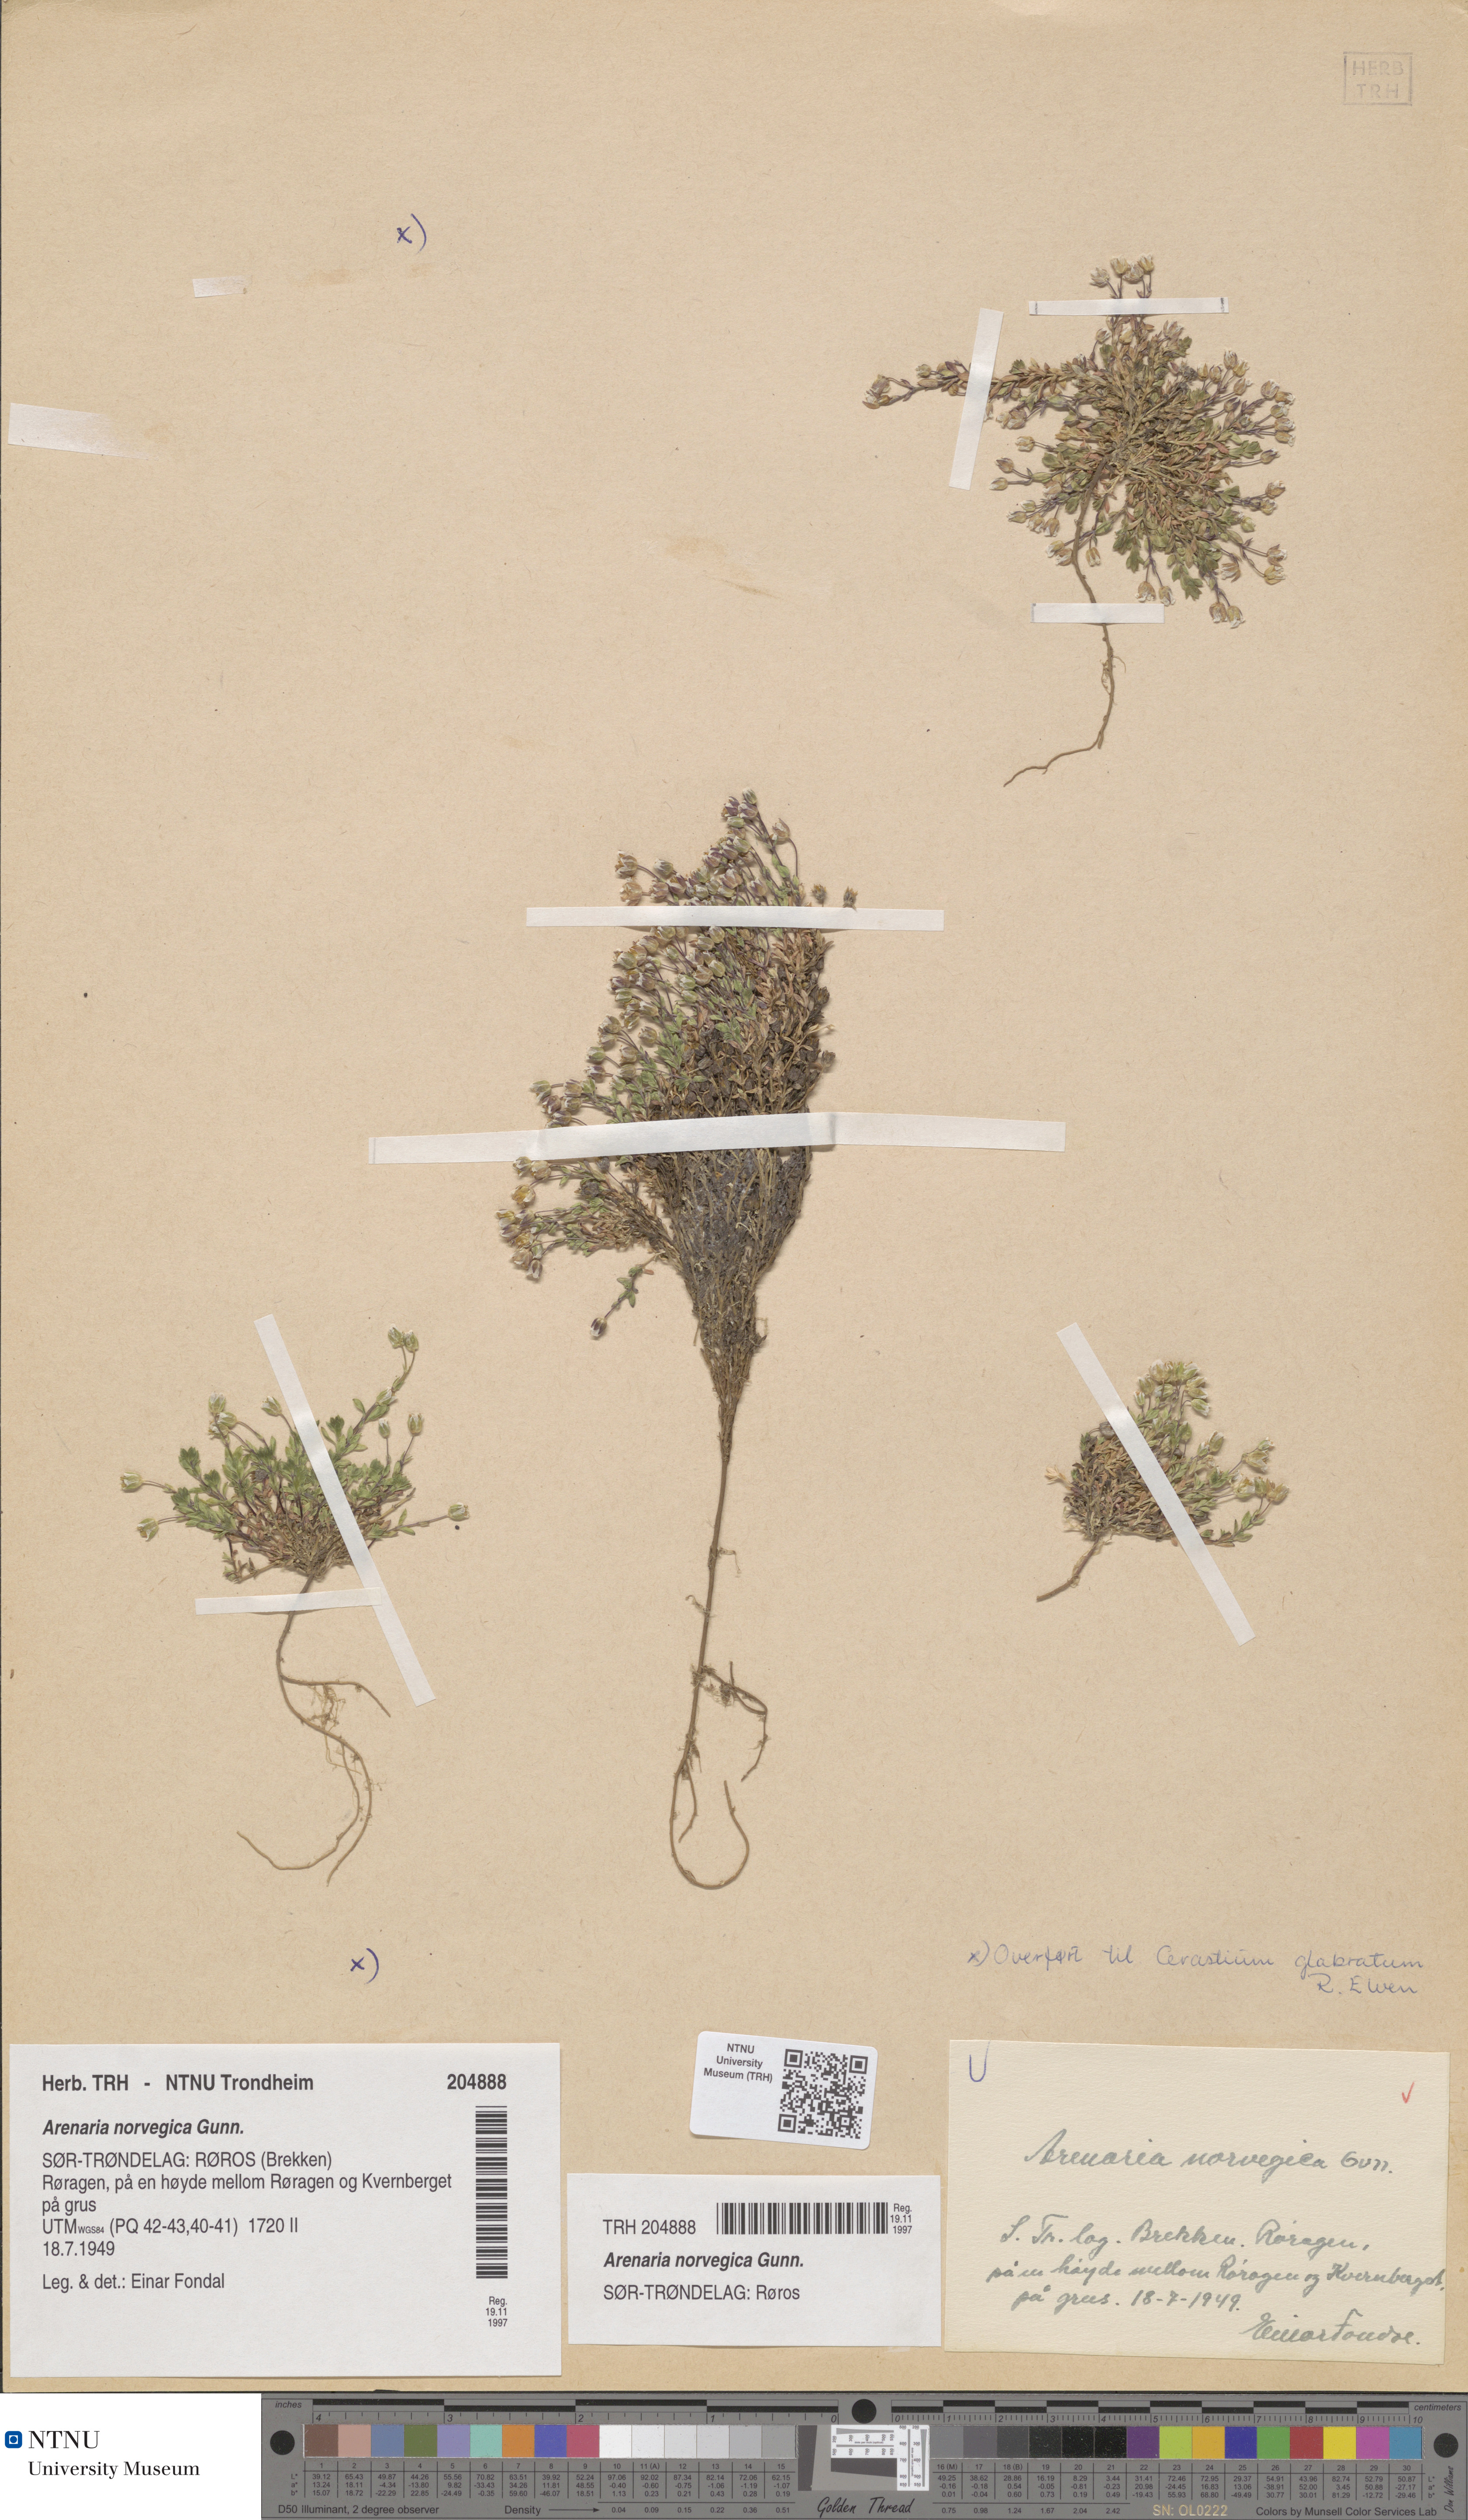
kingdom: Plantae
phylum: Tracheophyta
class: Magnoliopsida
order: Caryophyllales
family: Caryophyllaceae
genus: Arenaria
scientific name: Arenaria norvegica
